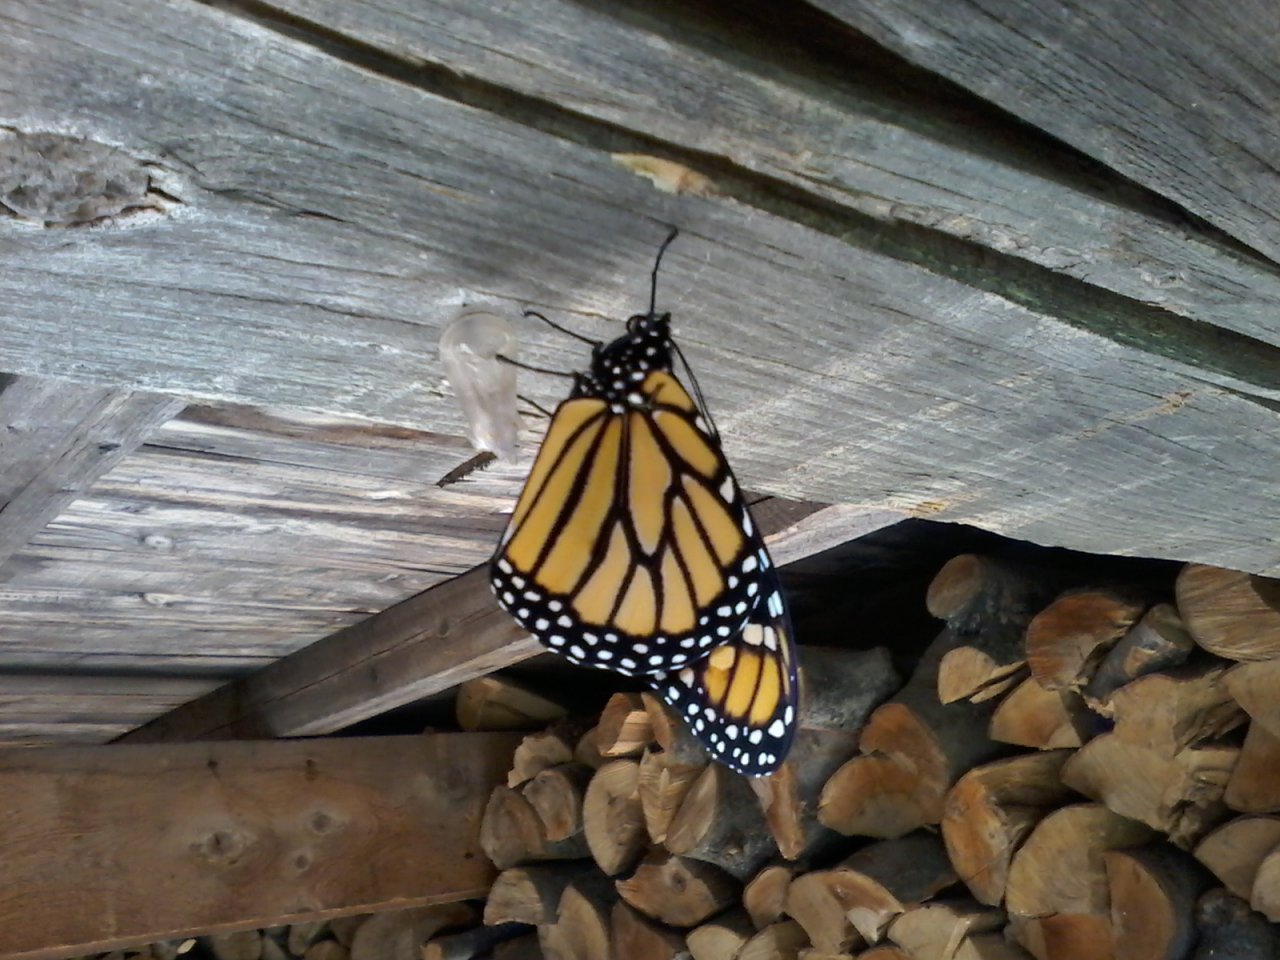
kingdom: Animalia
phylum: Arthropoda
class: Insecta
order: Lepidoptera
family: Nymphalidae
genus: Danaus
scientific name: Danaus plexippus
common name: Monarch
